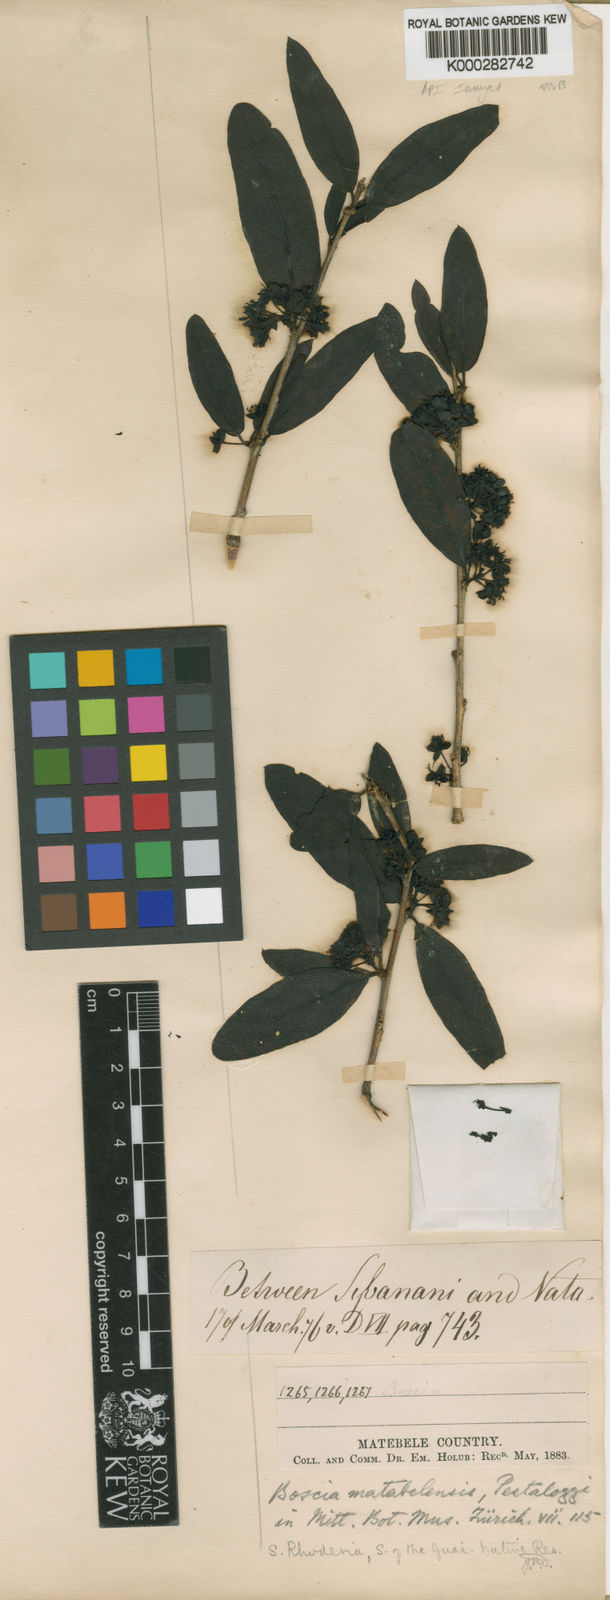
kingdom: Plantae
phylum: Tracheophyta
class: Magnoliopsida
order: Brassicales
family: Capparaceae
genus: Boscia
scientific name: Boscia matabelensis
